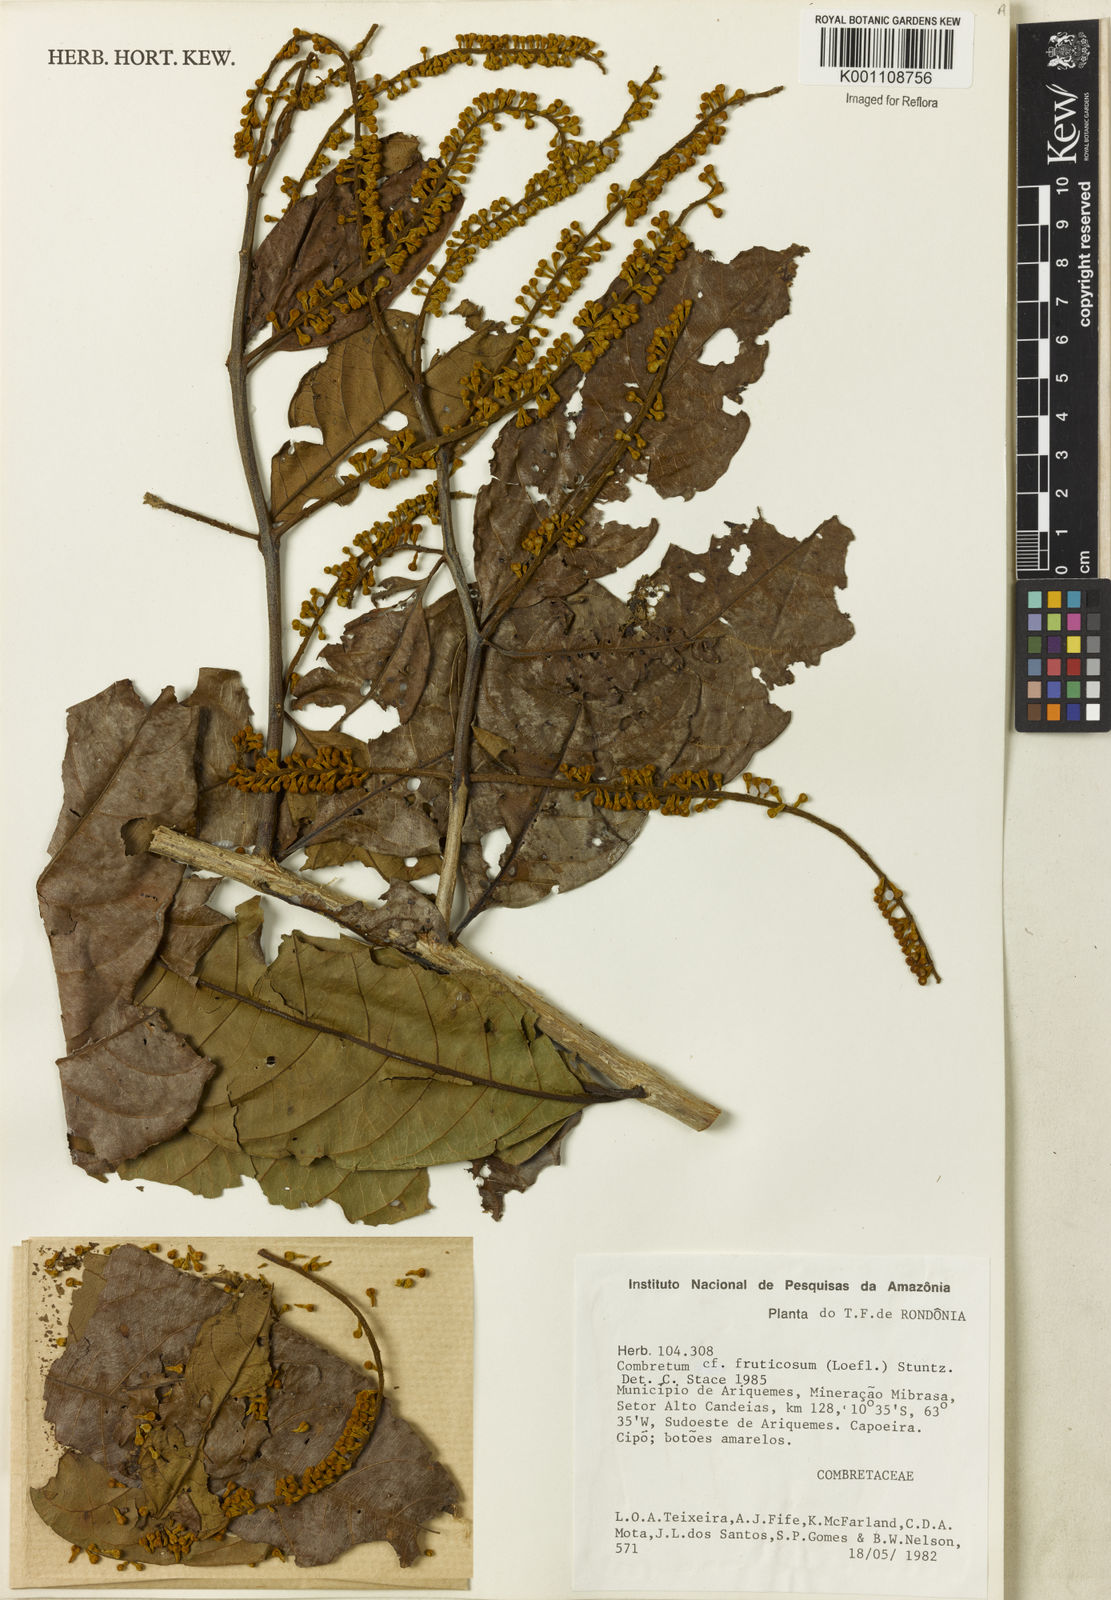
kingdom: Plantae
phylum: Tracheophyta
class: Magnoliopsida
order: Myrtales
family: Combretaceae
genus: Combretum
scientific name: Combretum fruticosum
